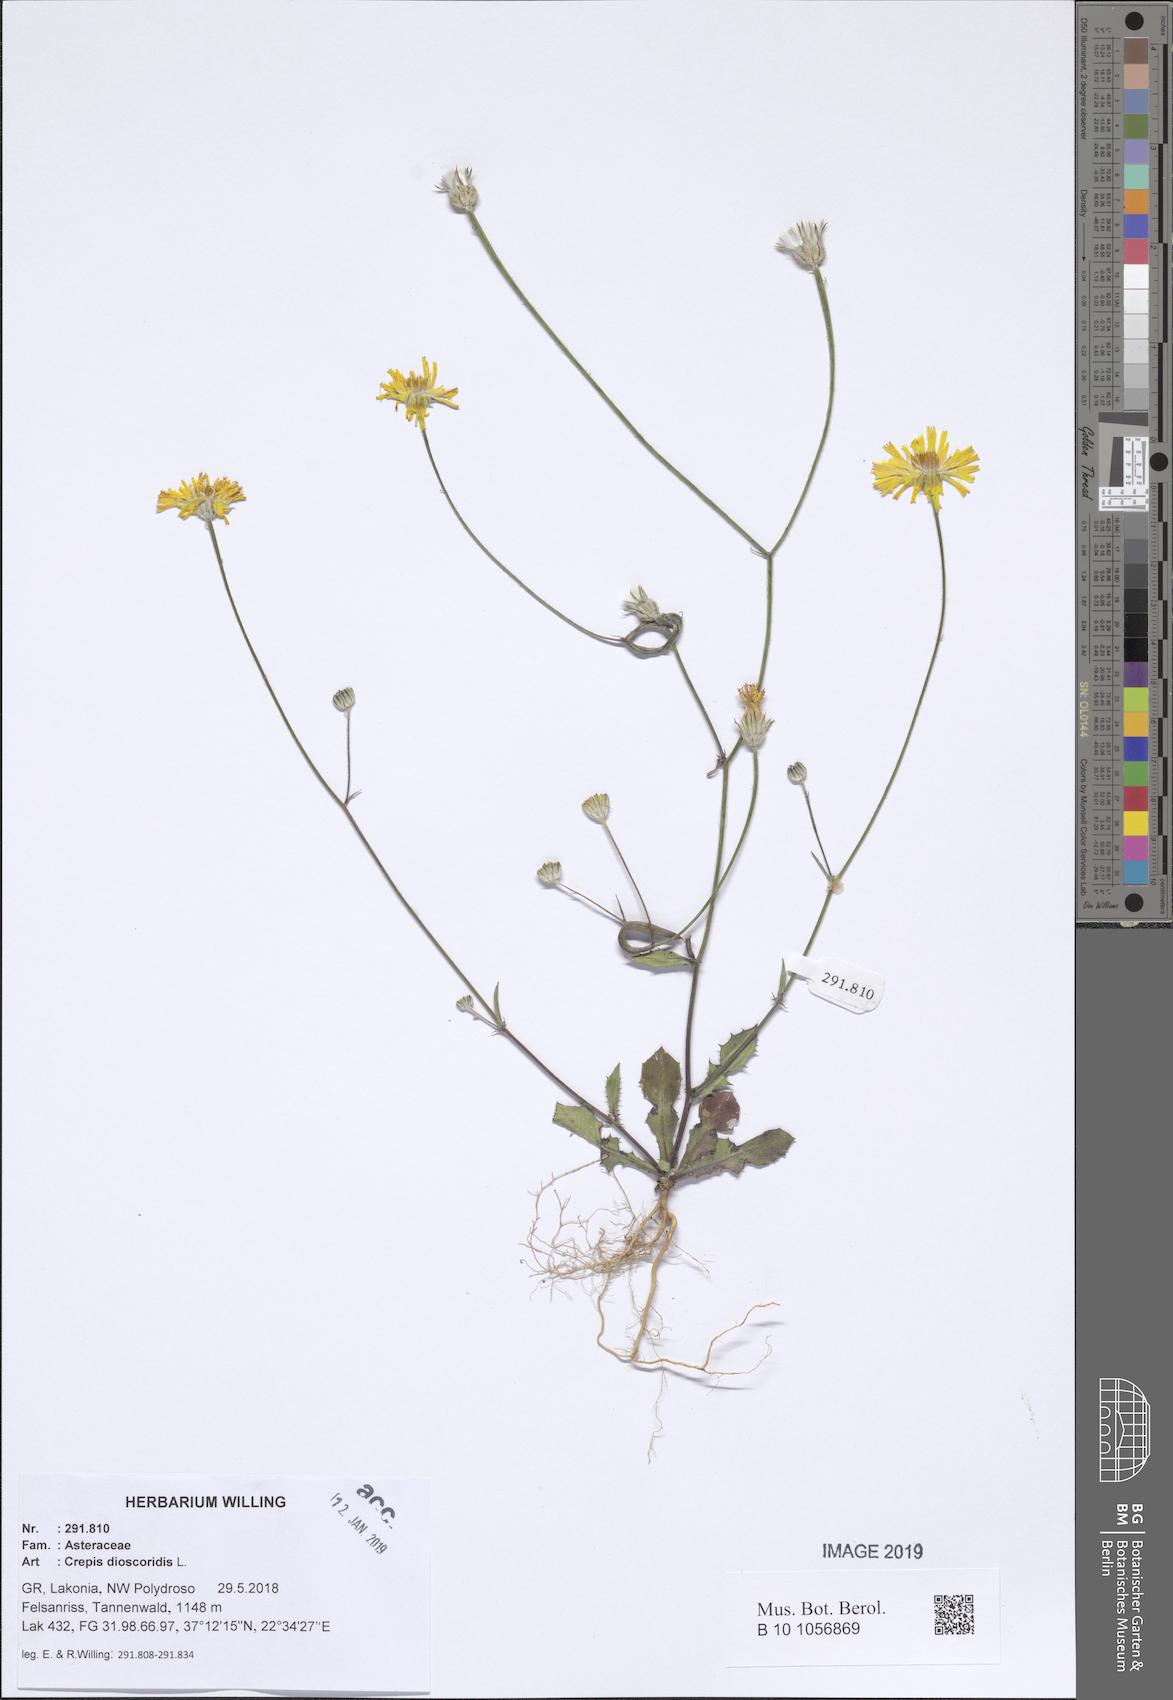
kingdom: Plantae
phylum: Tracheophyta
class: Magnoliopsida
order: Asterales
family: Asteraceae
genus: Crepis
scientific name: Crepis dioscoridis
